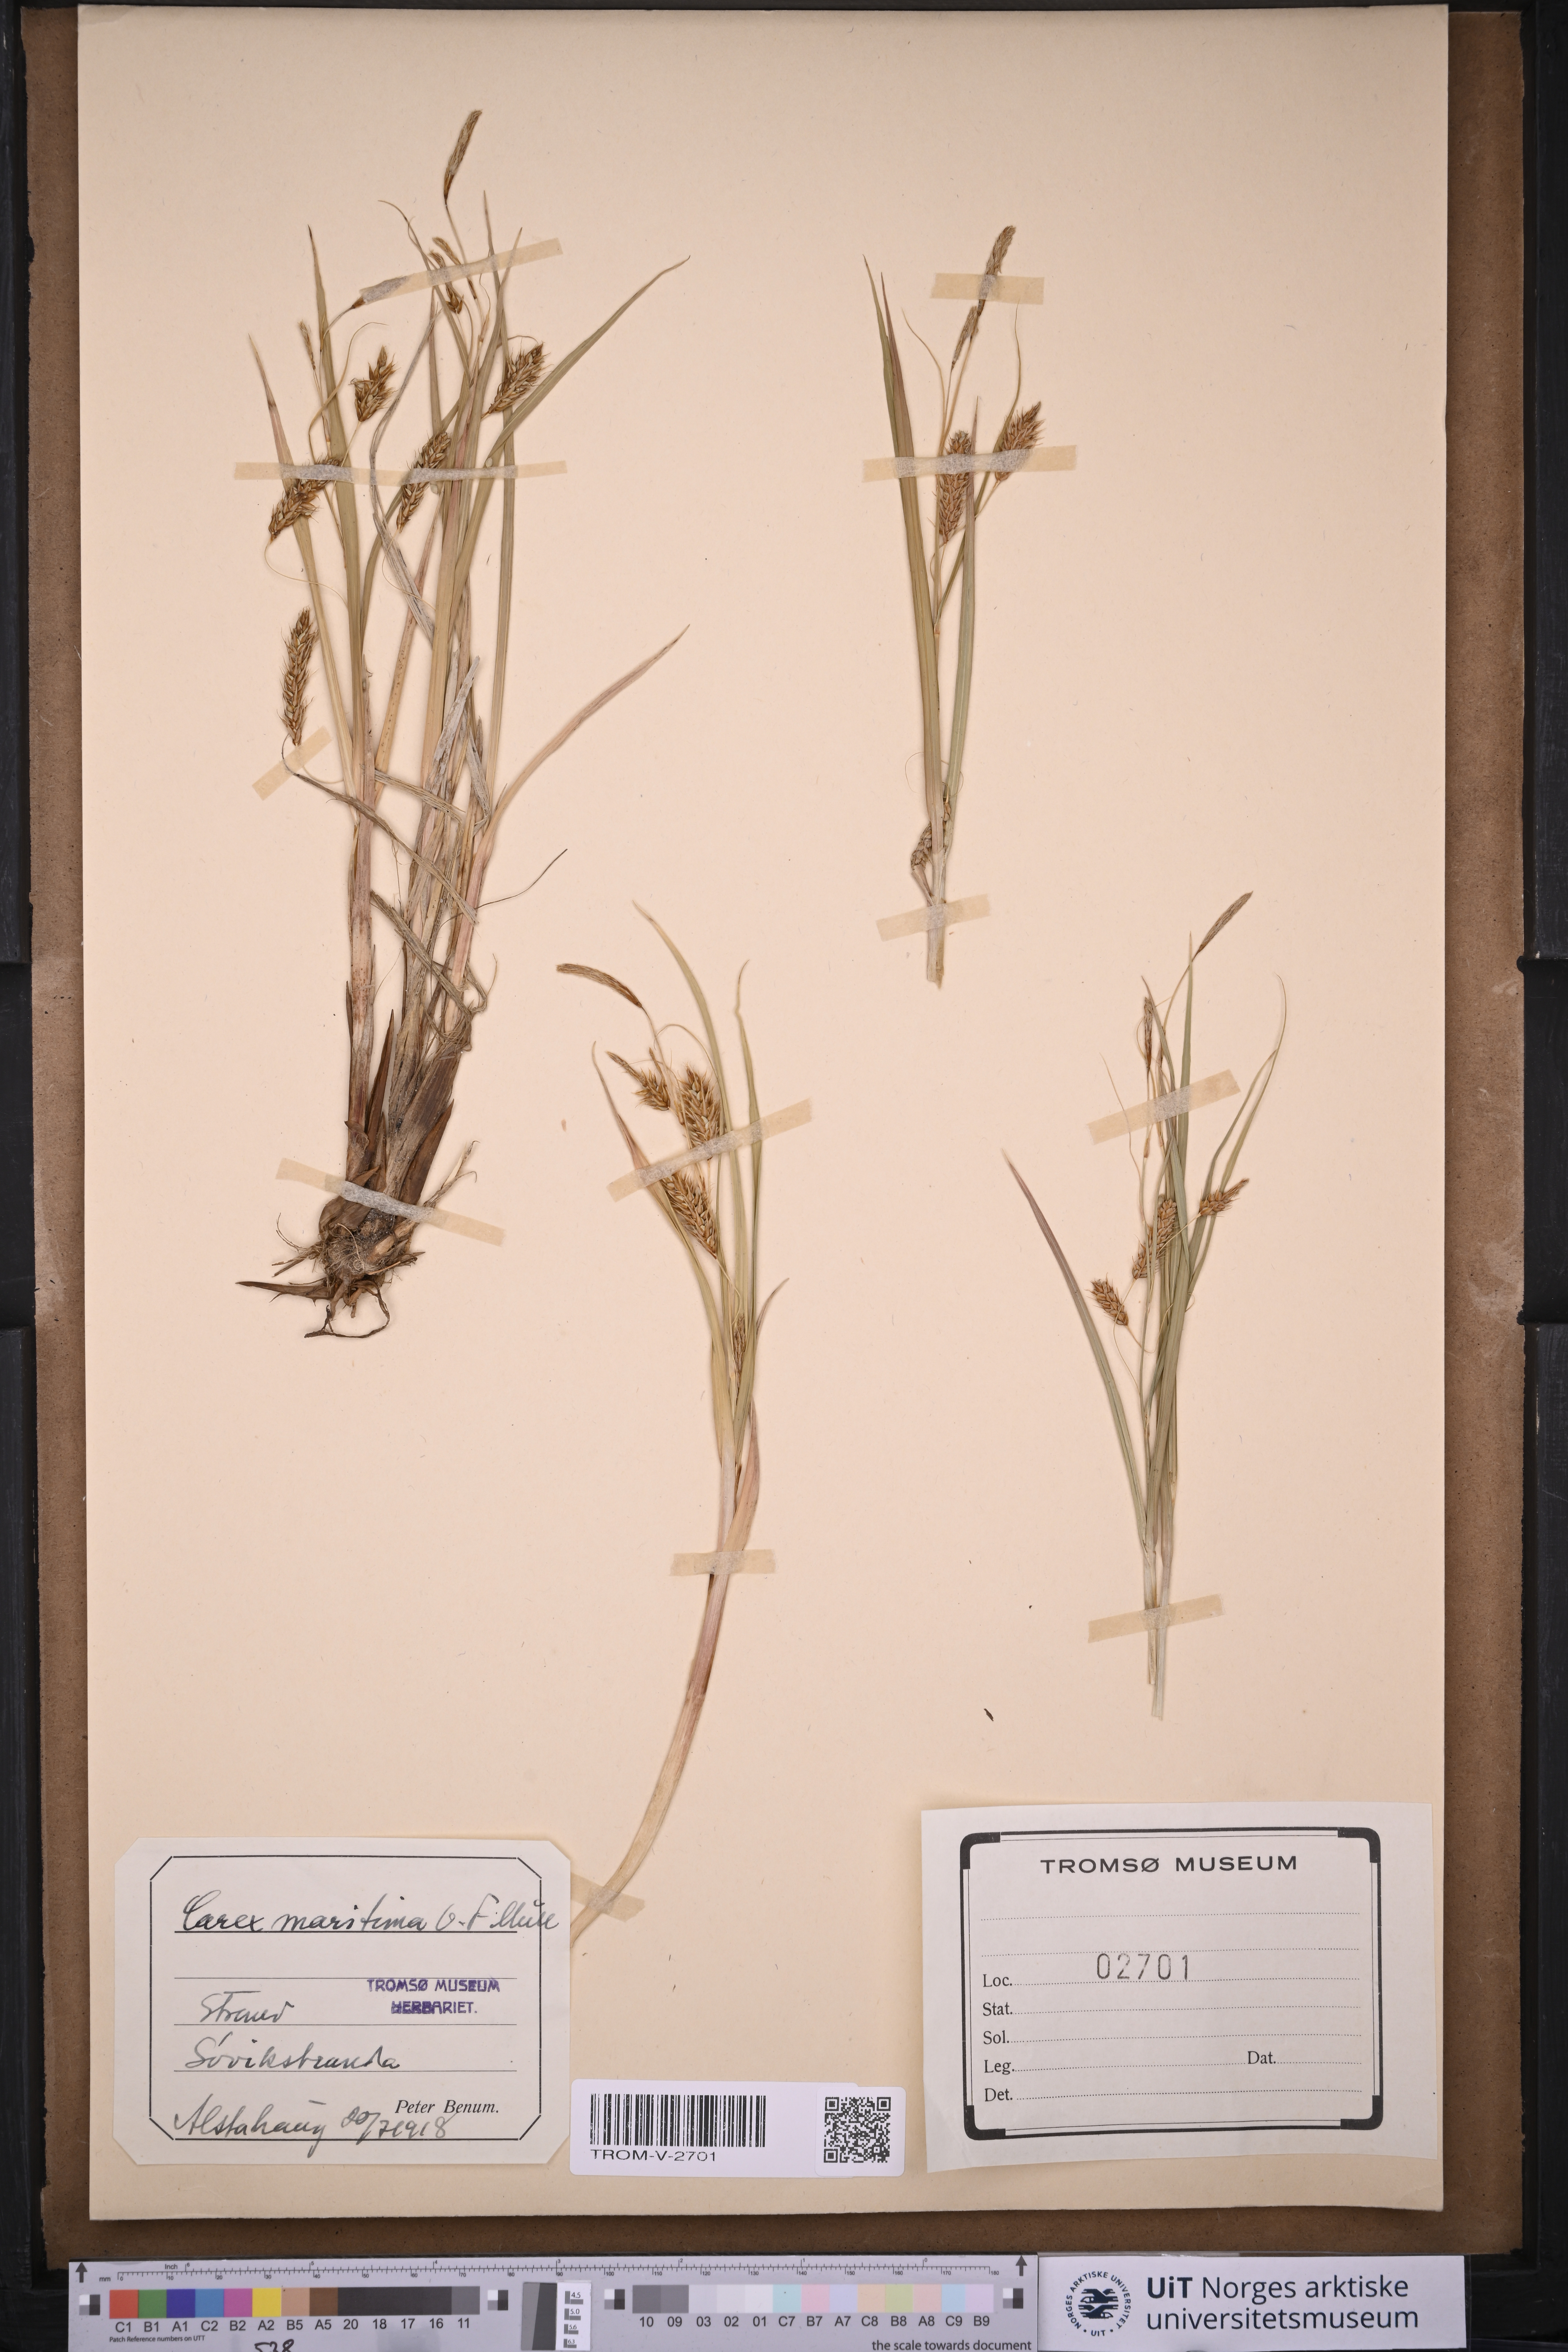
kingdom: Plantae
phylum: Tracheophyta
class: Liliopsida
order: Poales
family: Cyperaceae
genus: Carex
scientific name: Carex paleacea
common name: Chaffy sedge
